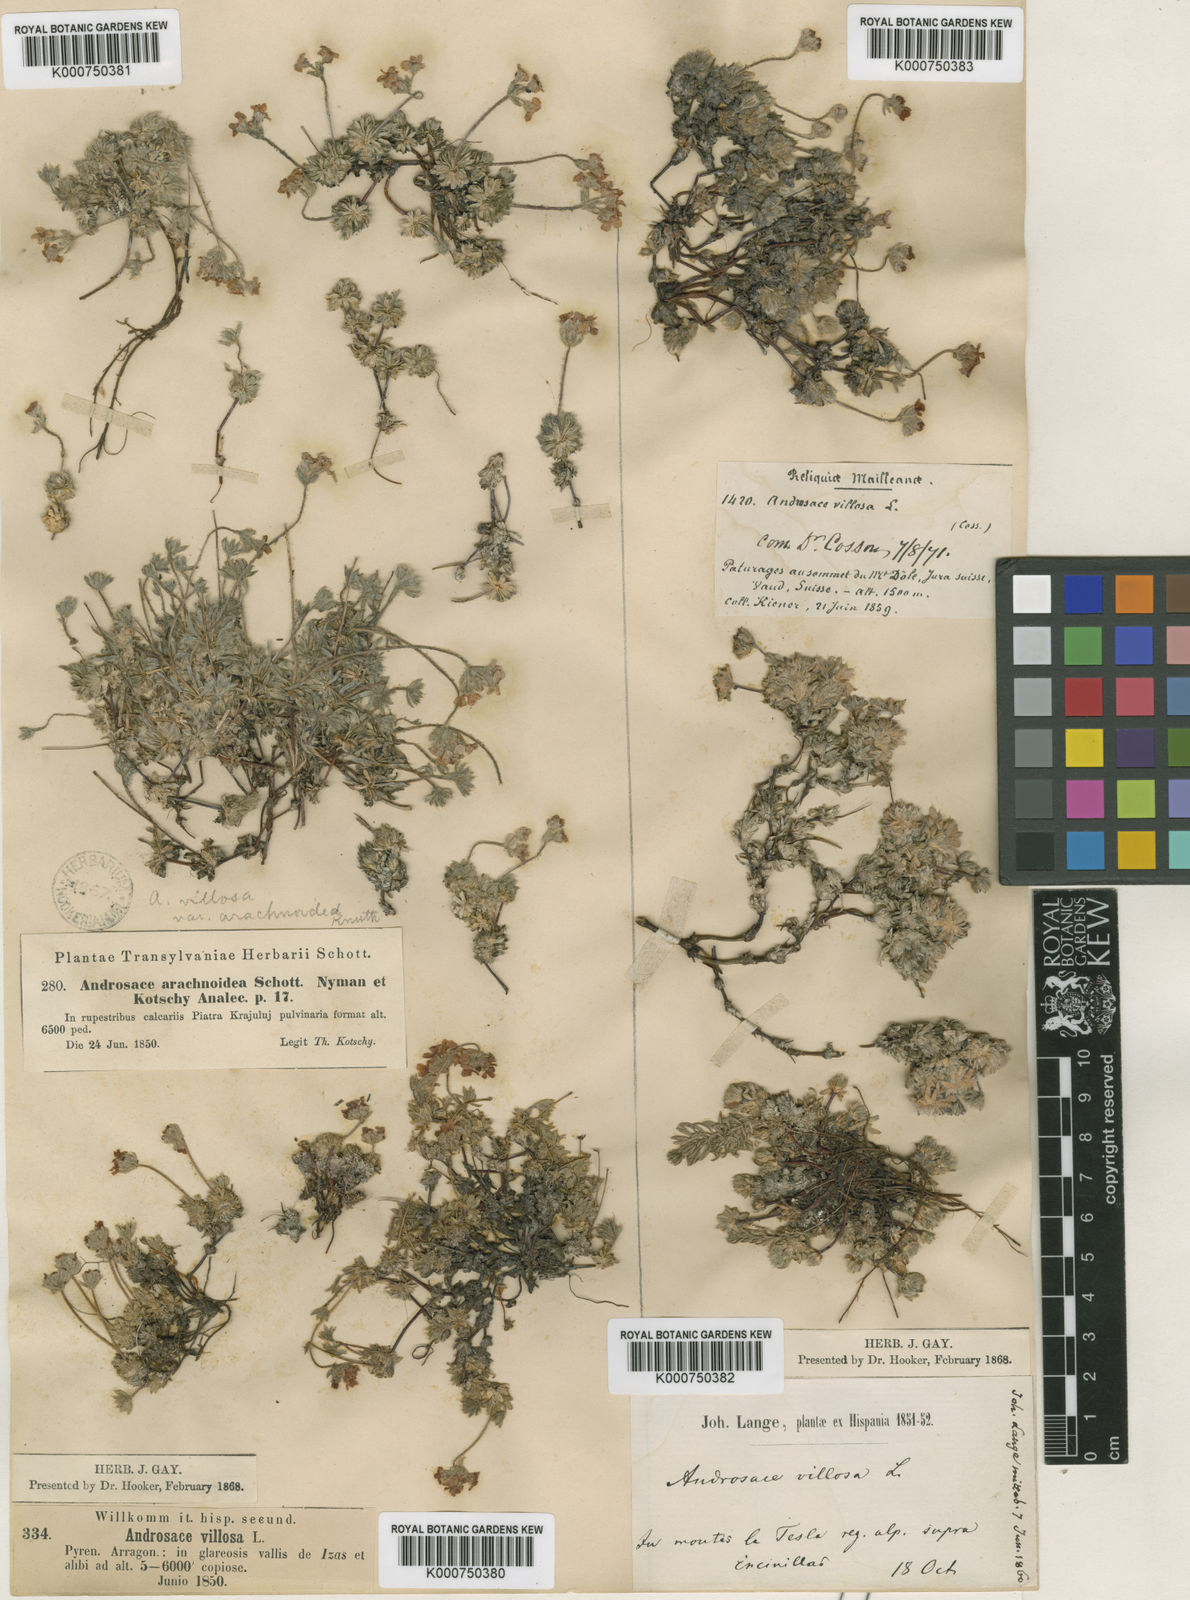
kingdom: Plantae
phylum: Tracheophyta
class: Magnoliopsida
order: Ericales
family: Primulaceae
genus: Androsace
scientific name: Androsace villosa
